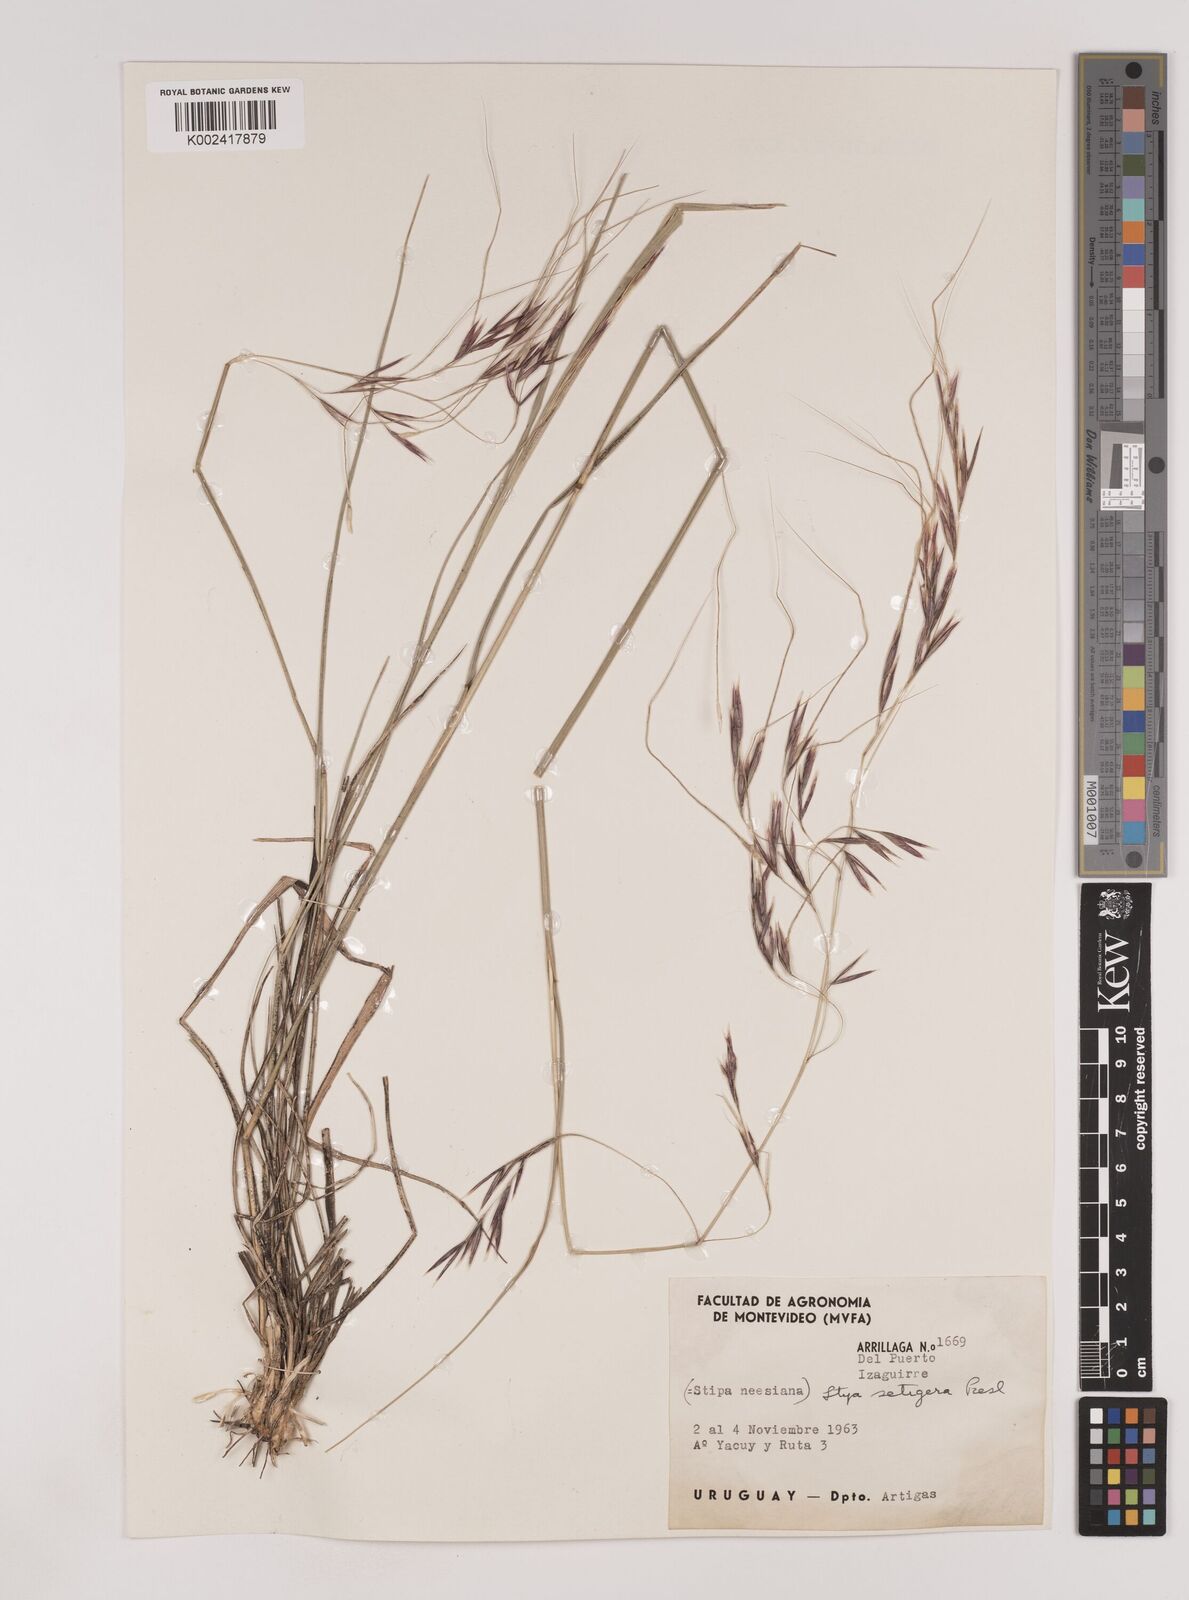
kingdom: Plantae
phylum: Tracheophyta
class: Liliopsida
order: Poales
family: Poaceae
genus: Nassella
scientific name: Nassella neesiana
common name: American needle-grass
